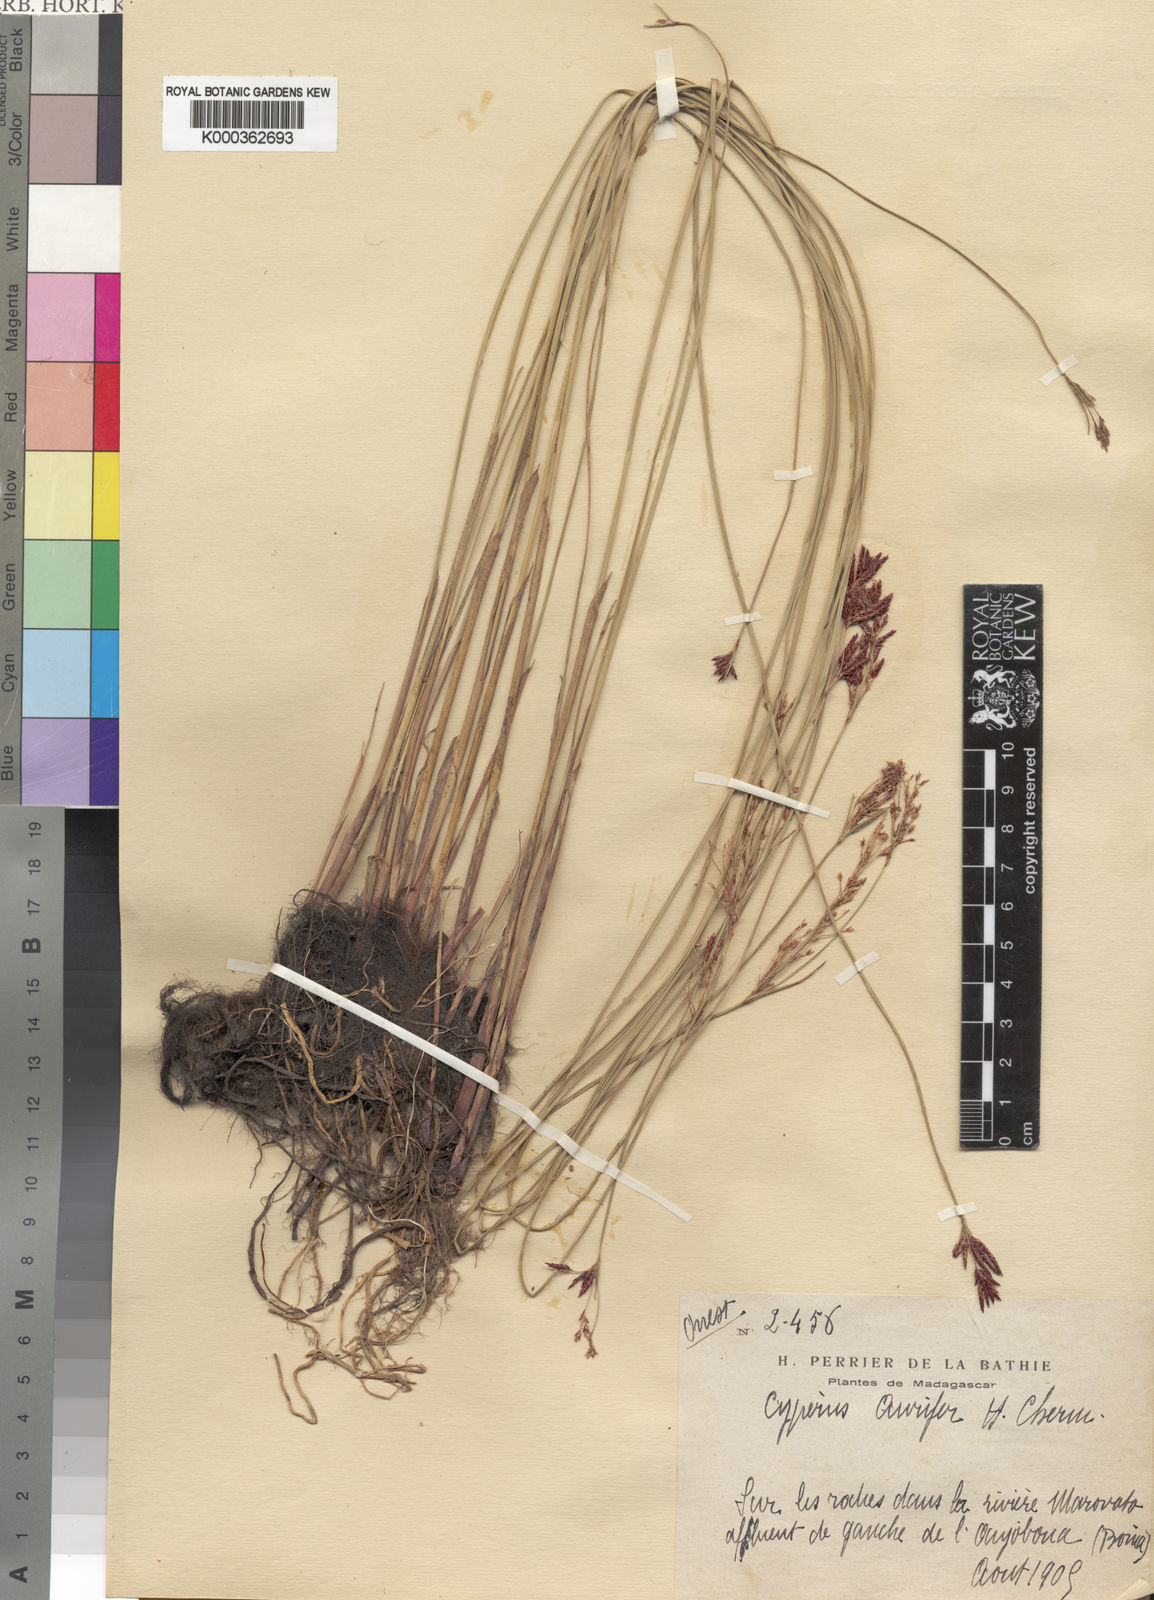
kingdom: Plantae
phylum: Tracheophyta
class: Liliopsida
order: Poales
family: Cyperaceae
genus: Cyperus
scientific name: Cyperus aurifer
